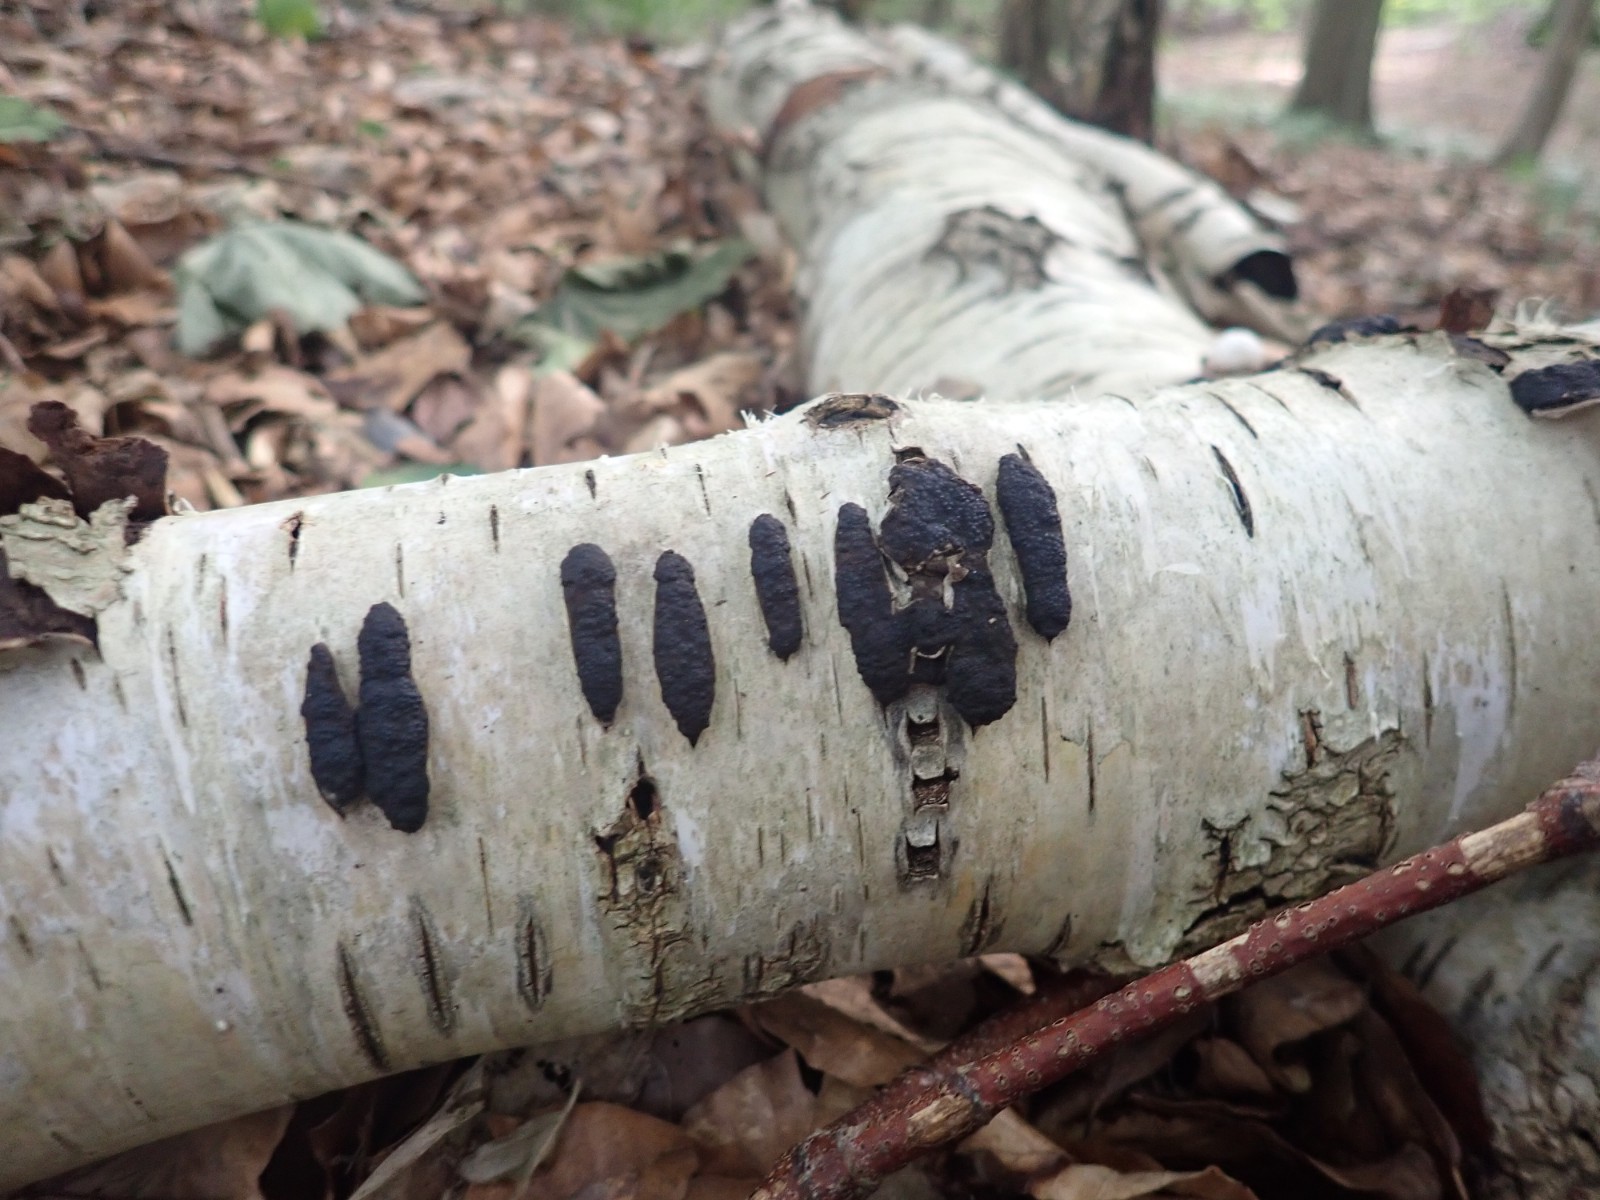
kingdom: Fungi
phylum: Ascomycota
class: Sordariomycetes
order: Xylariales
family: Hypoxylaceae
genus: Jackrogersella
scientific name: Jackrogersella multiformis
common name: foranderlig kulbær
